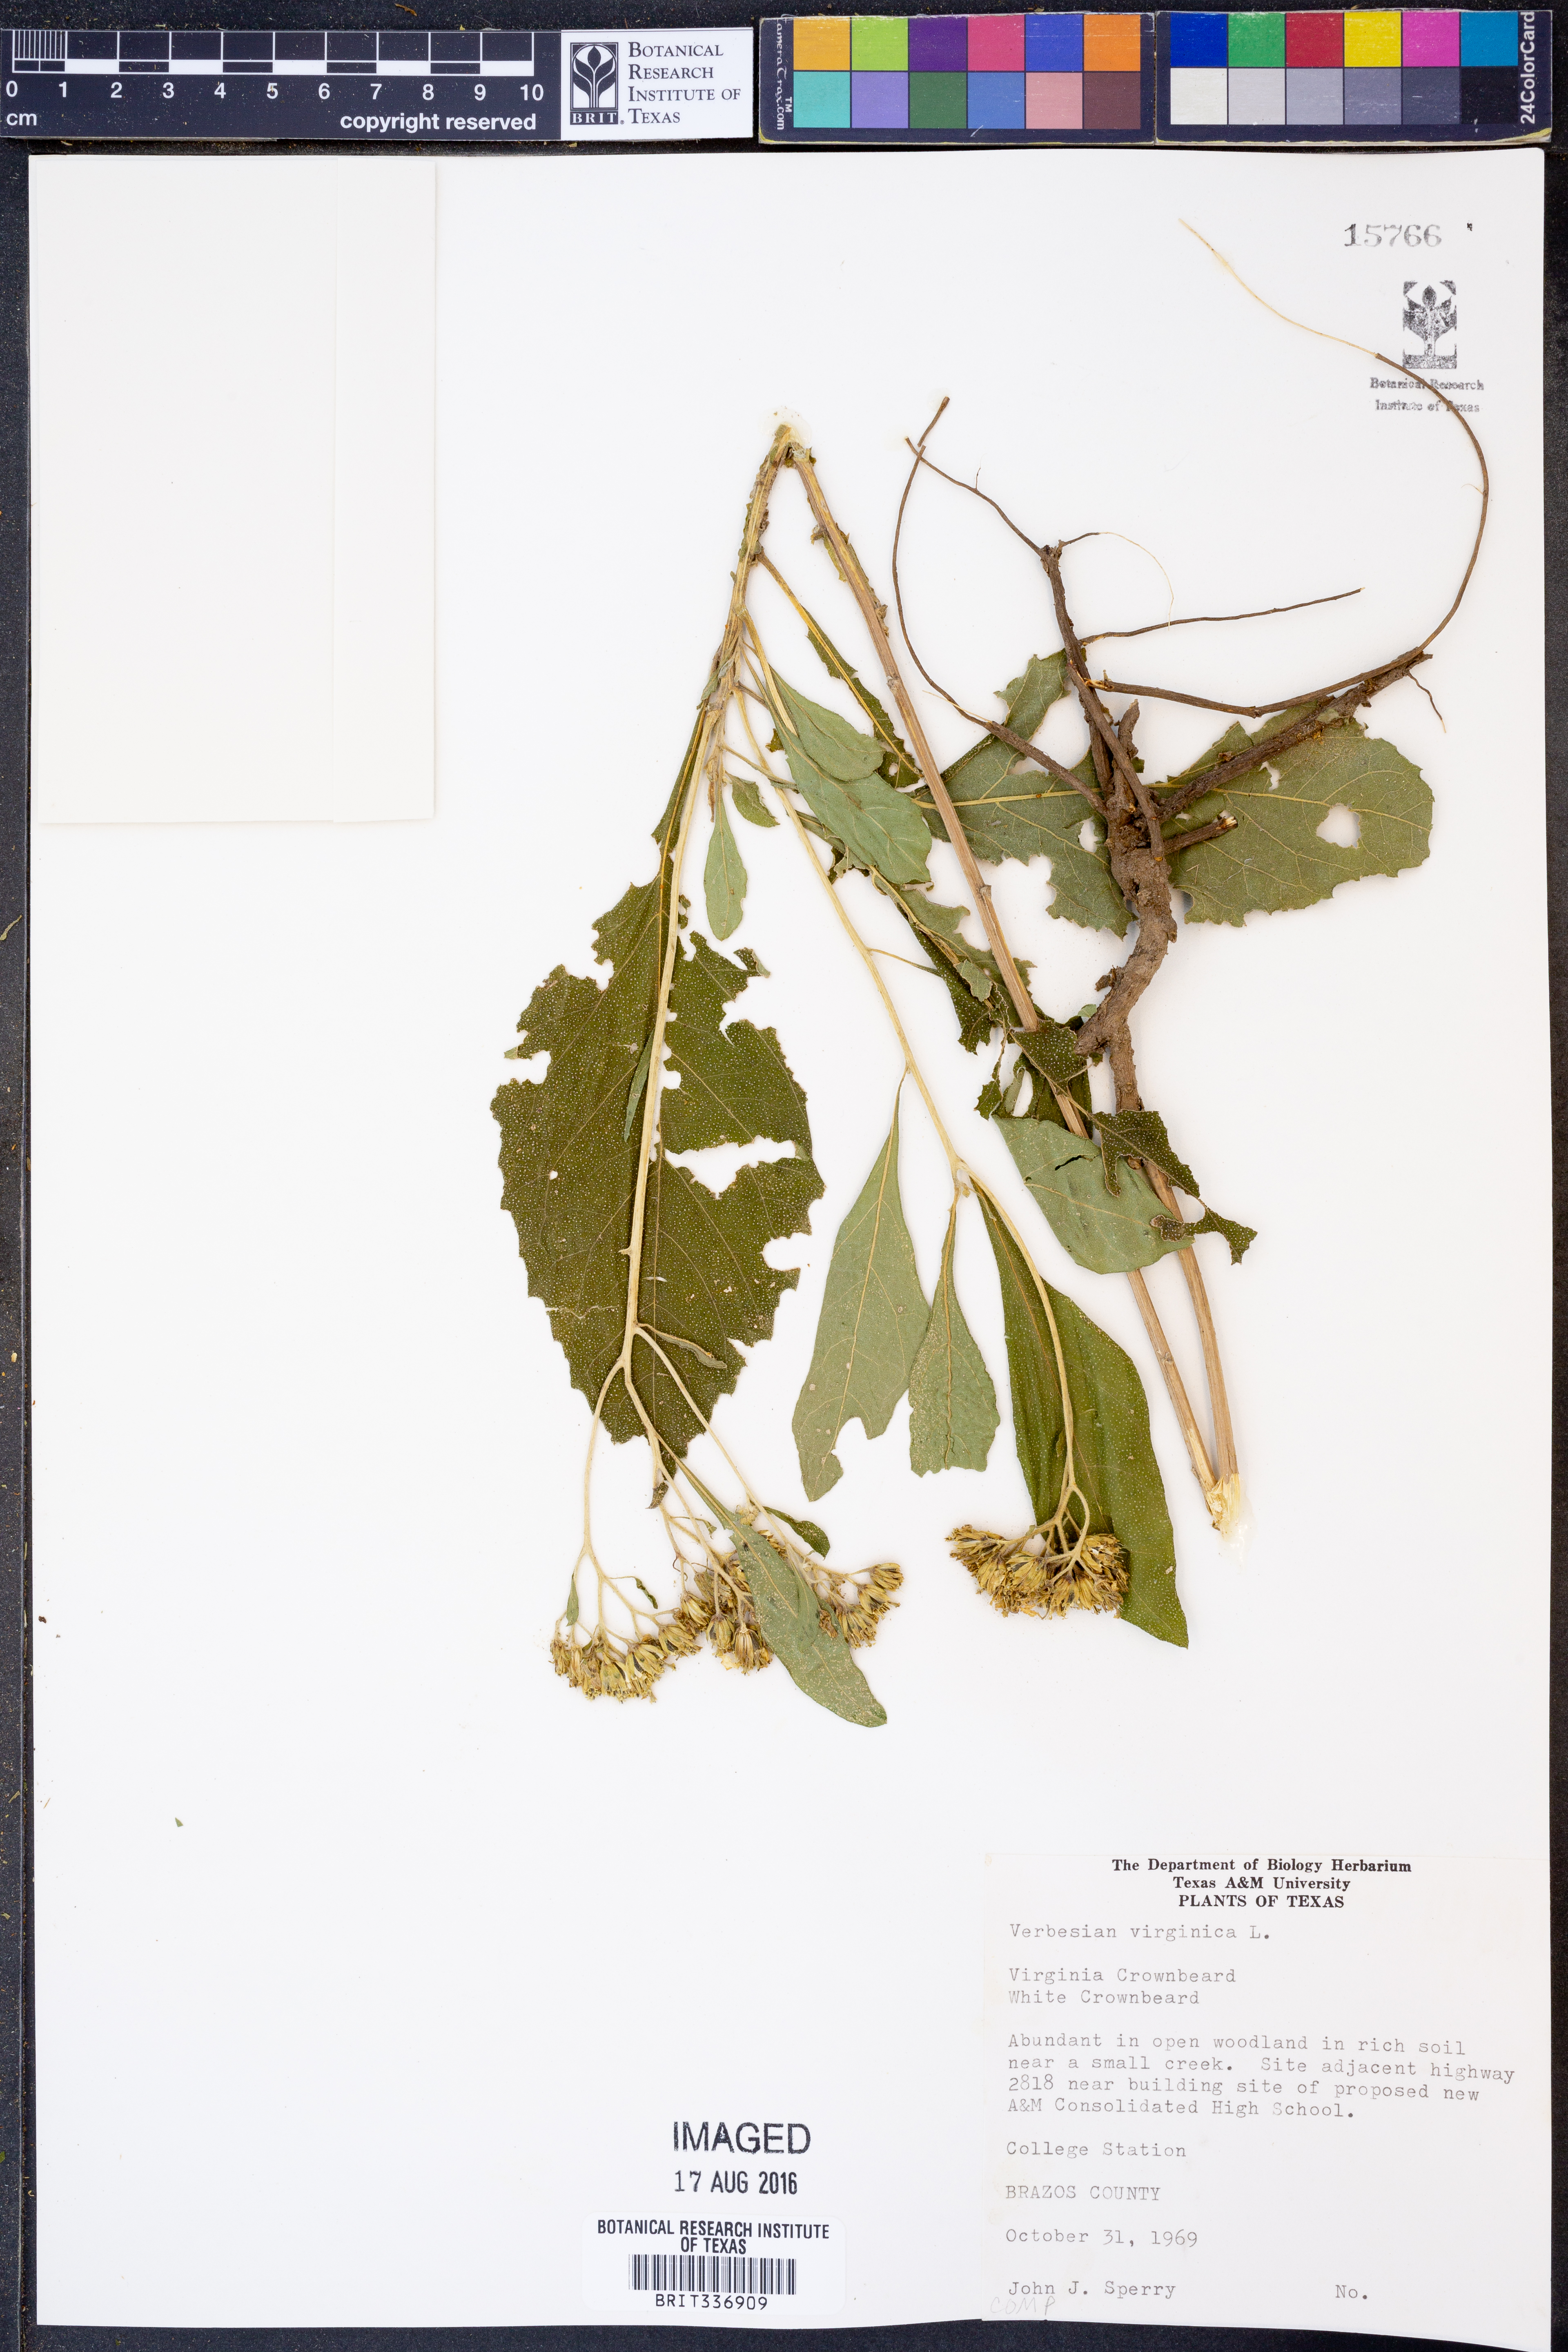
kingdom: Plantae
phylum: Tracheophyta
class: Magnoliopsida
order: Asterales
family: Asteraceae
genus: Verbesina
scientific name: Verbesina virginica
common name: Frostweed
